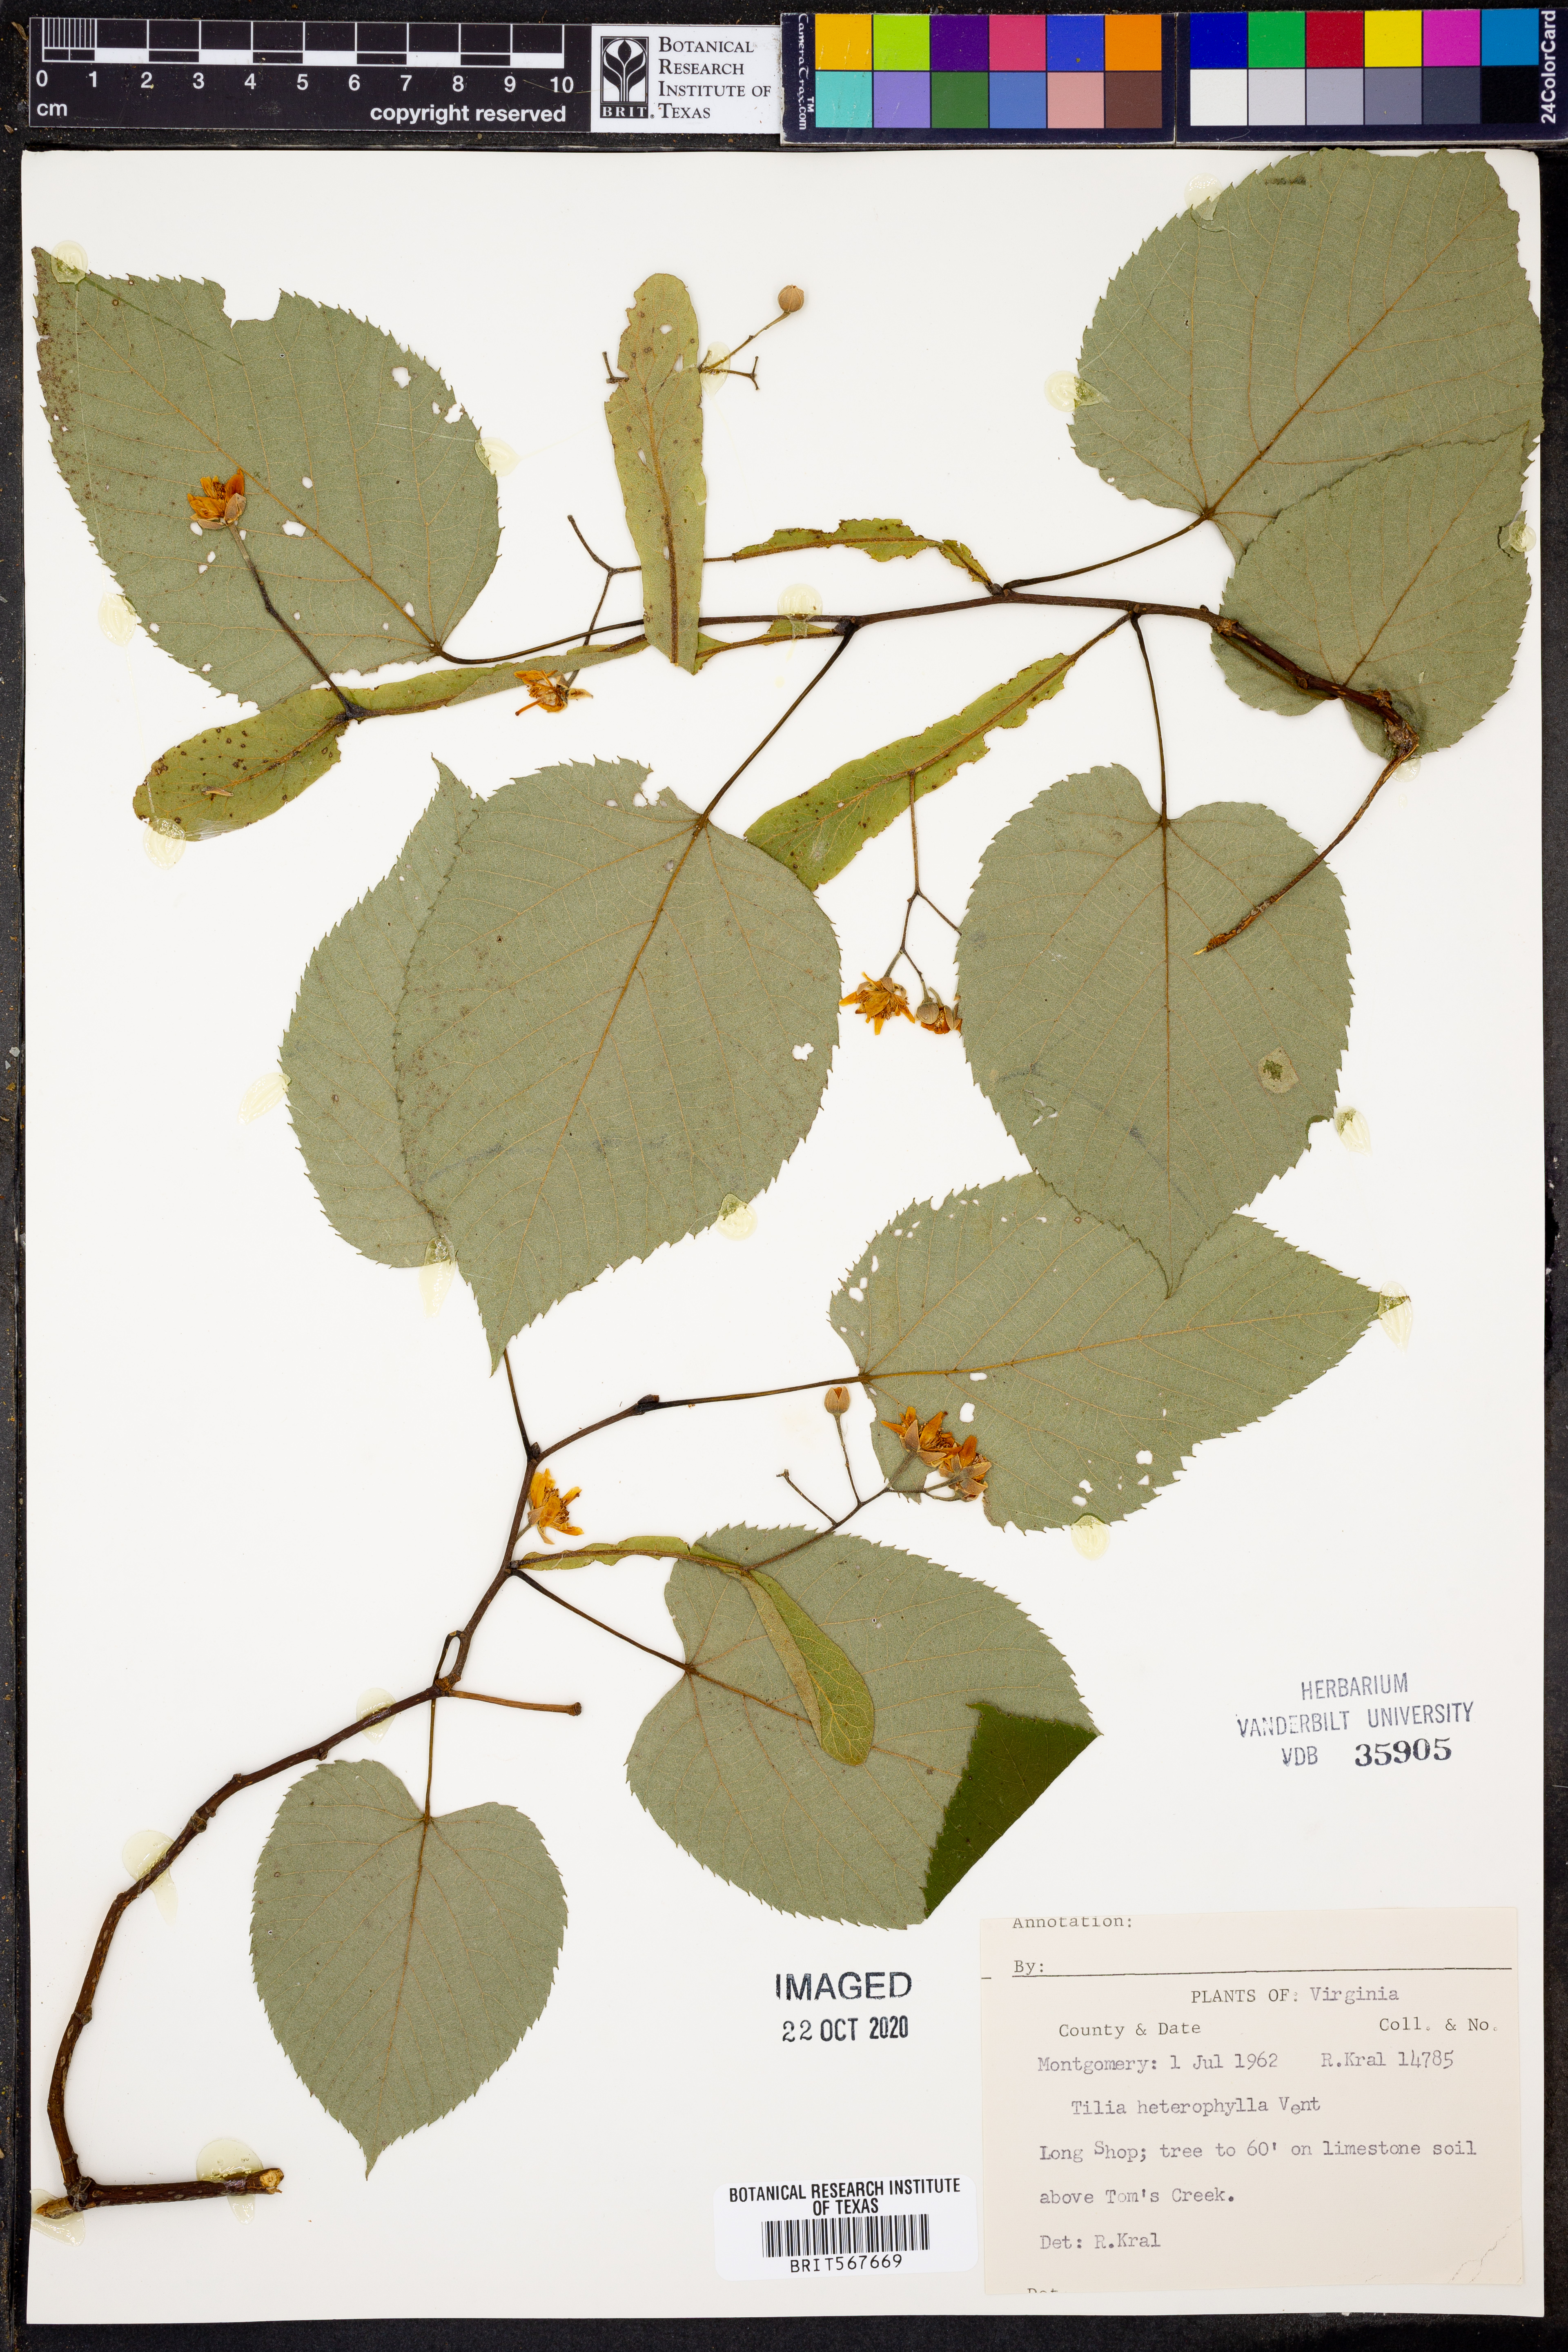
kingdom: Plantae
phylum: Tracheophyta
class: Magnoliopsida
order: Malvales
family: Malvaceae
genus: Tilia
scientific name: Tilia americana
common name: Basswood
